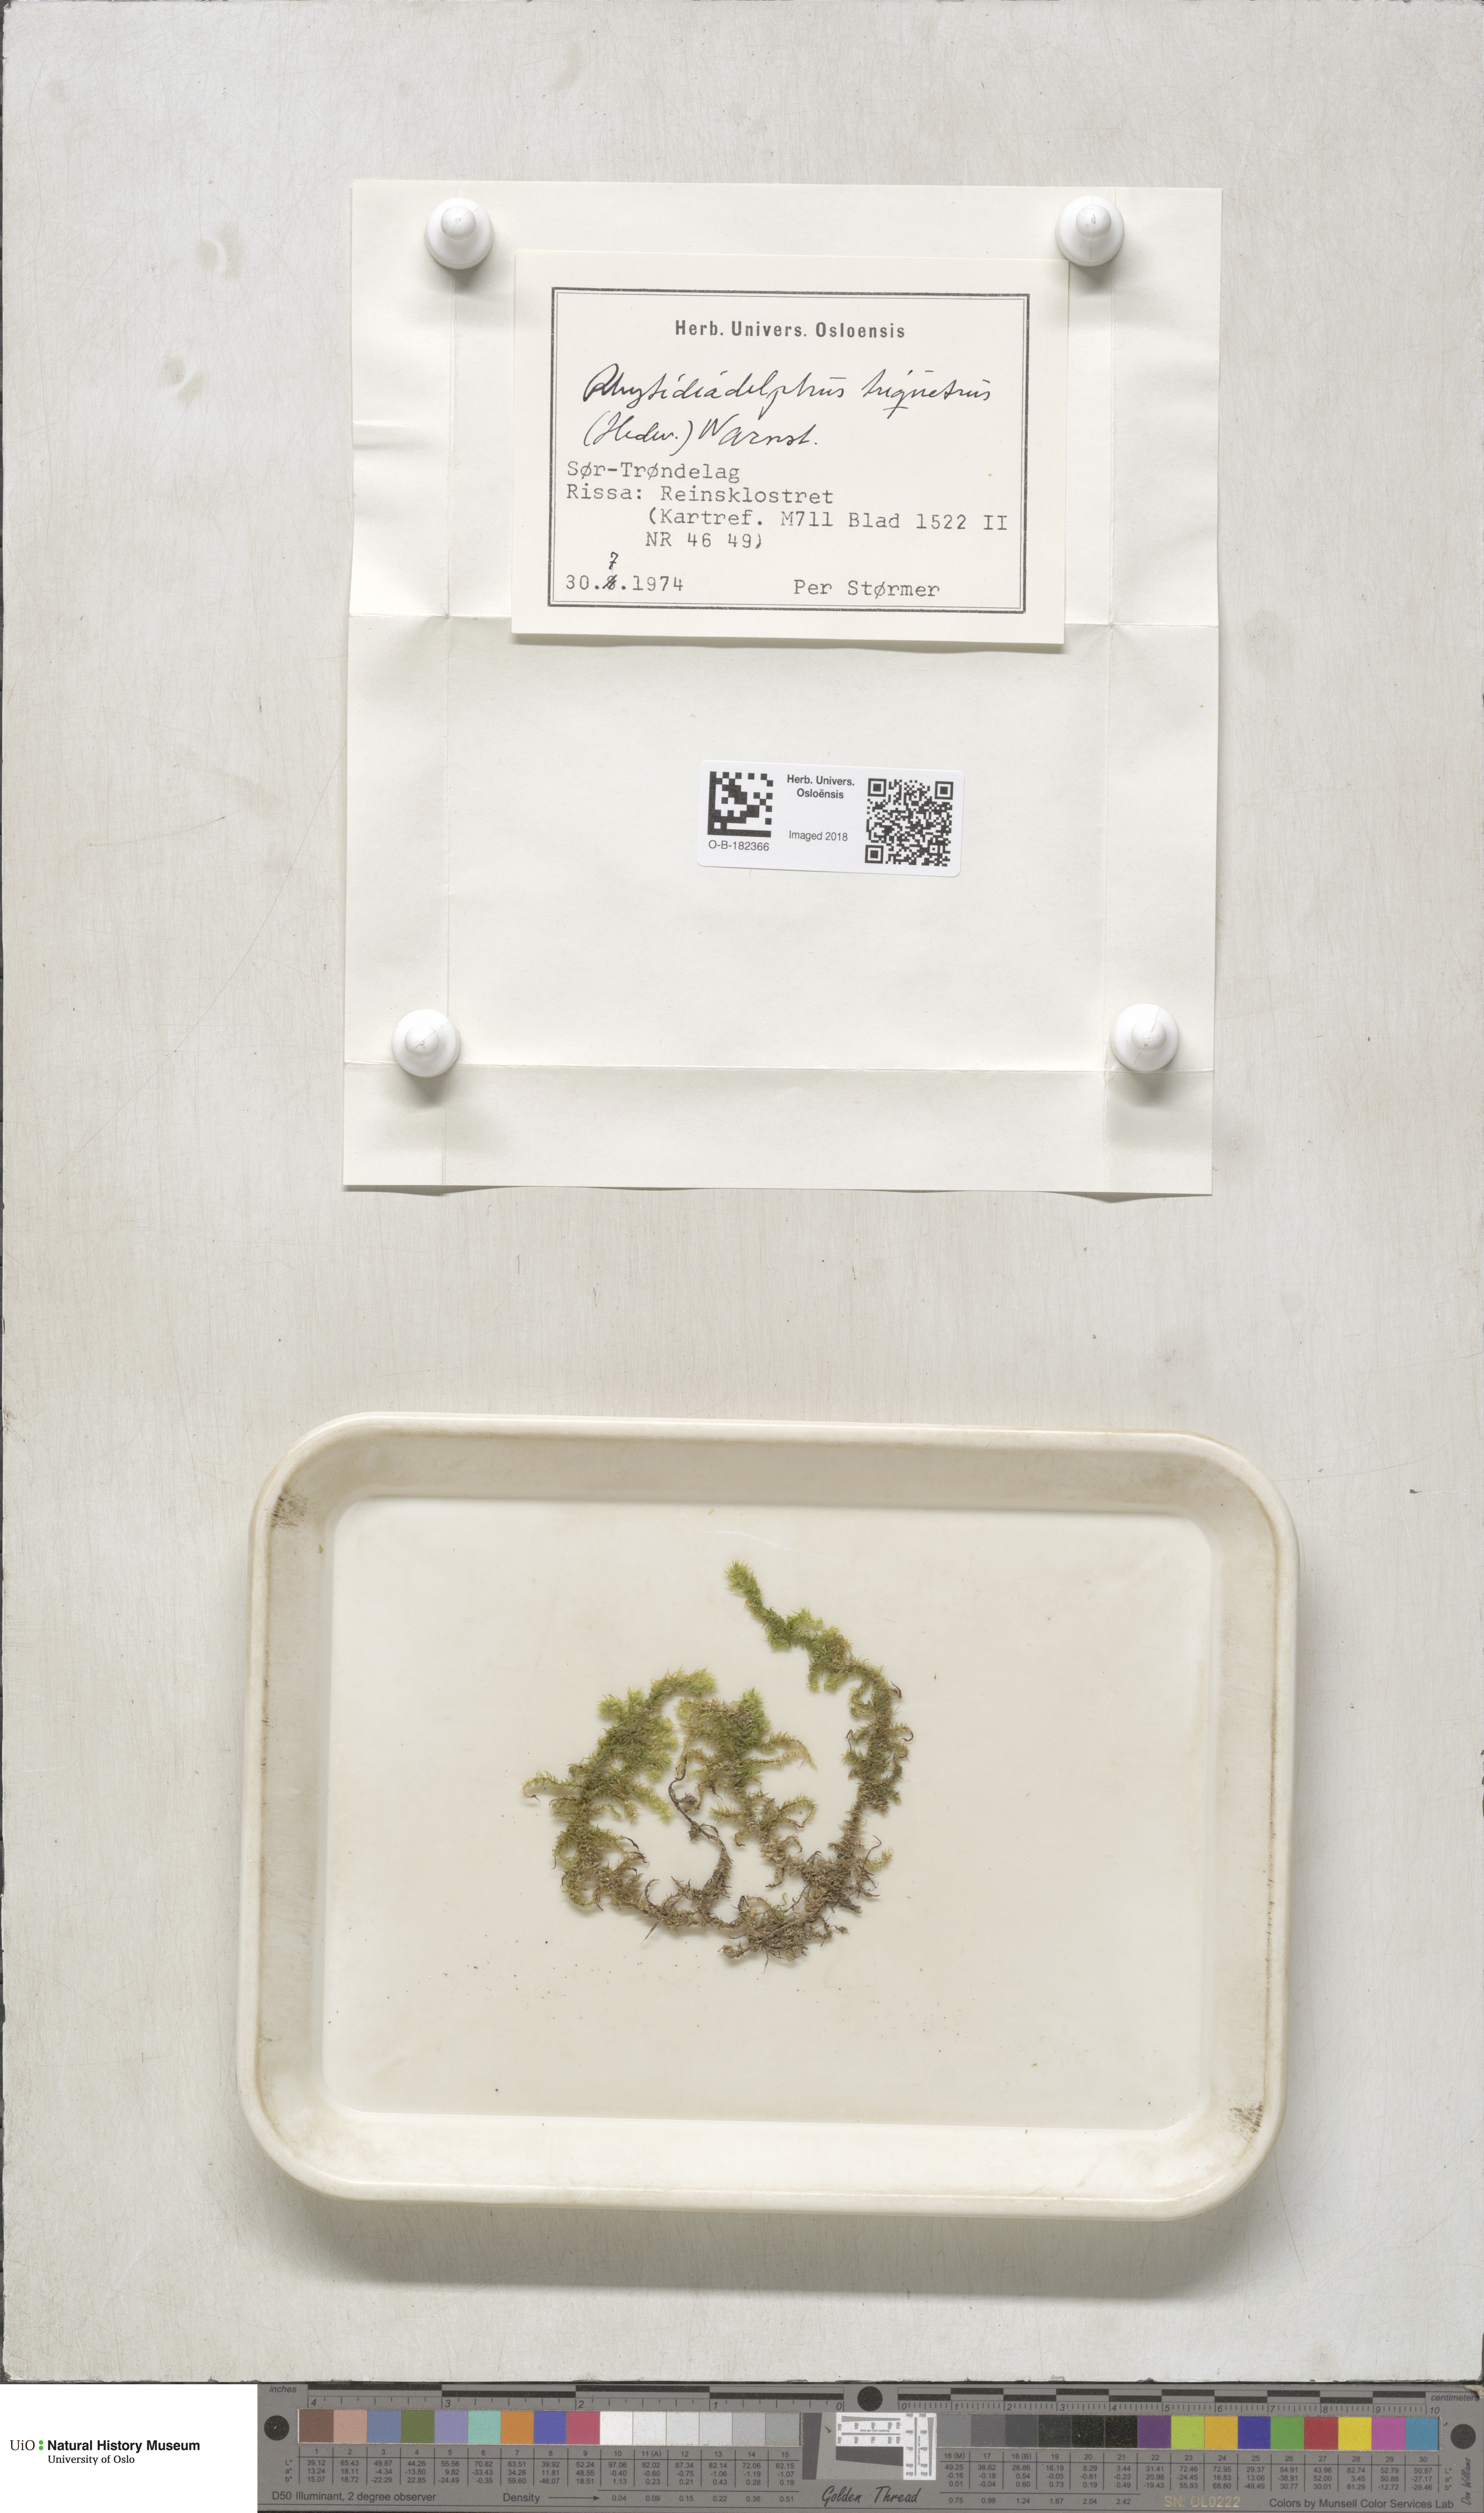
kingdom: Plantae
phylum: Bryophyta
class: Bryopsida
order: Hypnales
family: Hylocomiaceae
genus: Hylocomiadelphus
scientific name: Hylocomiadelphus triquetrus
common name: Rough goose neck moss
